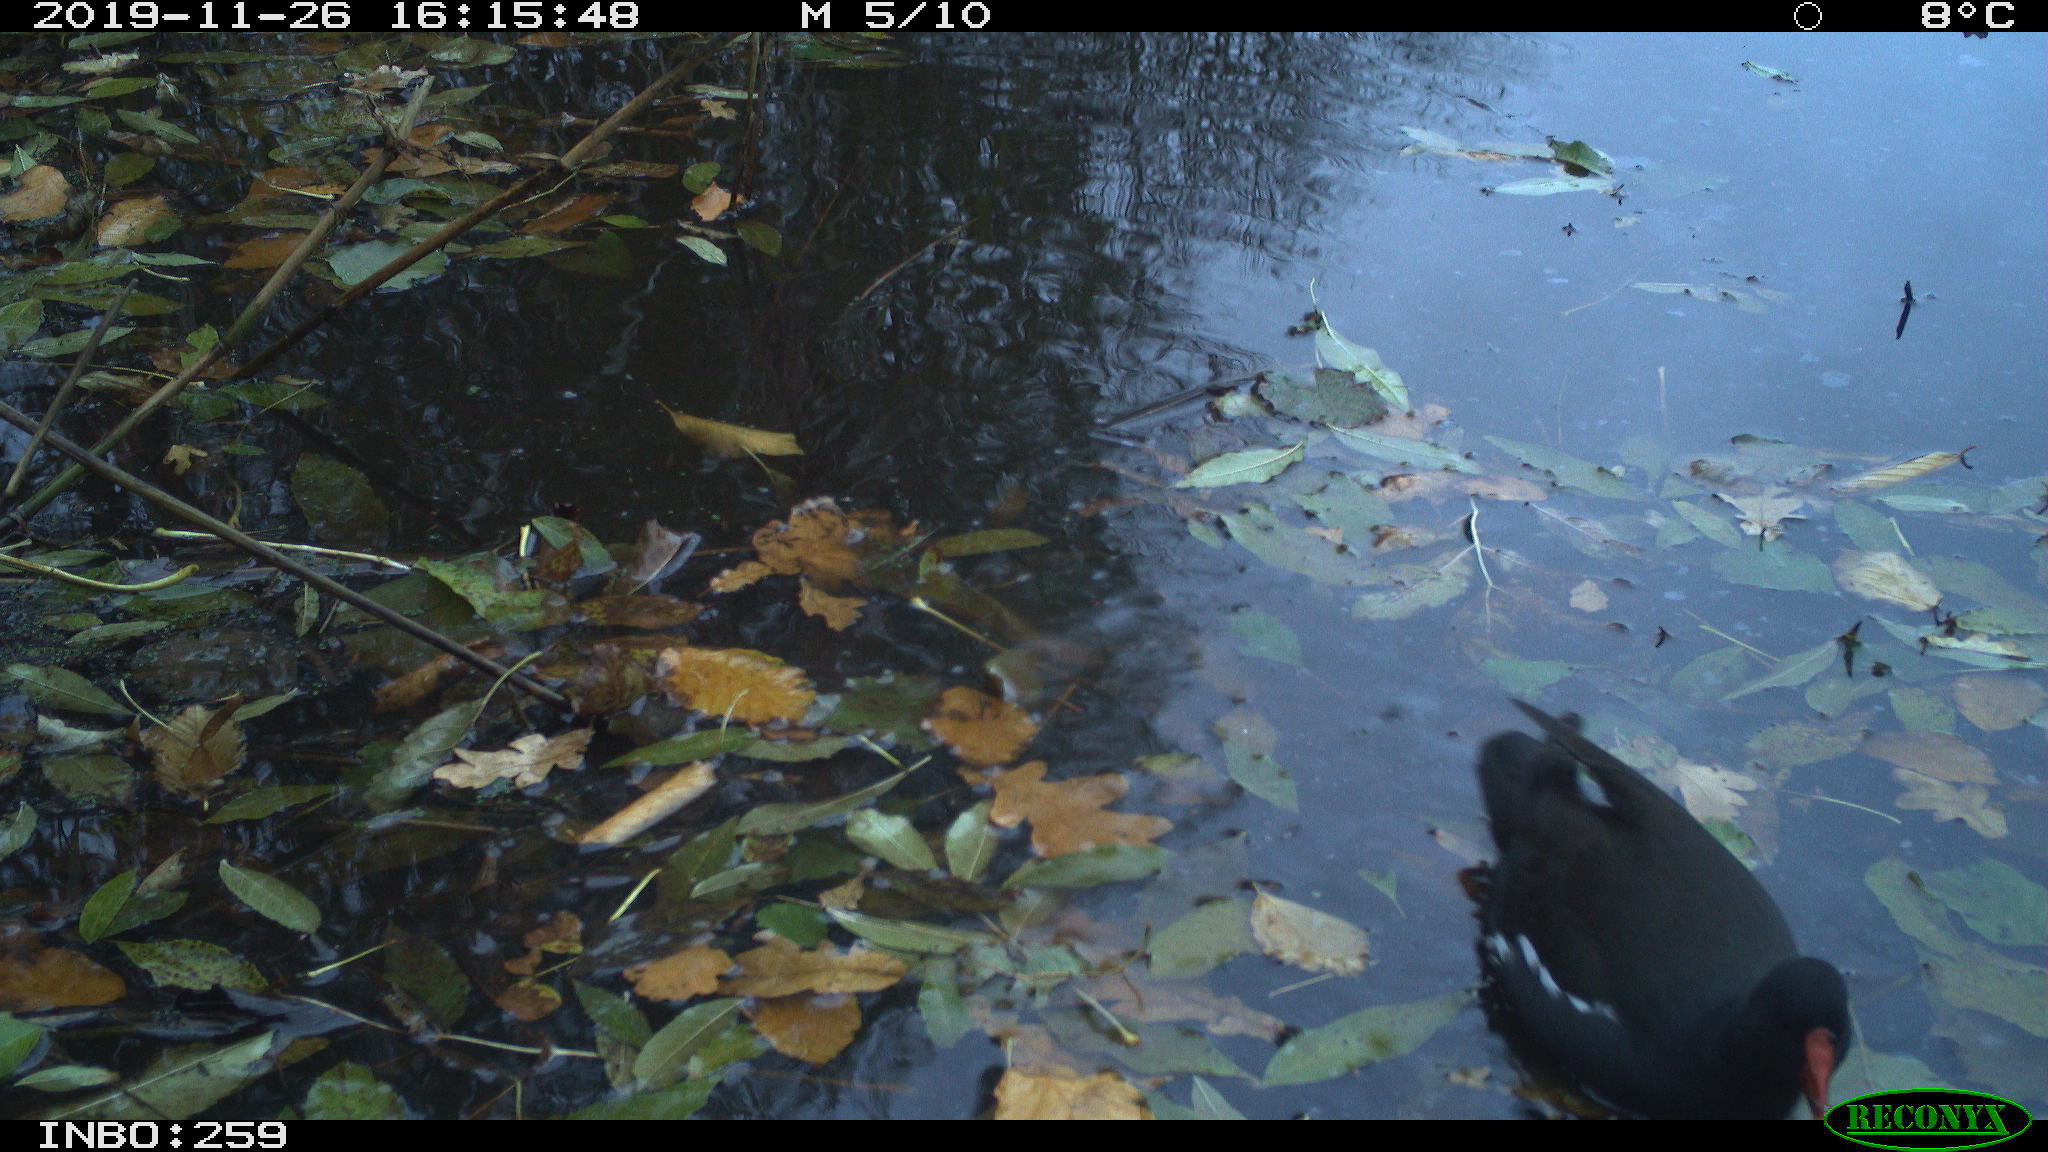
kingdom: Animalia
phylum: Chordata
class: Aves
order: Gruiformes
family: Rallidae
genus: Gallinula
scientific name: Gallinula chloropus
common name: Common moorhen
